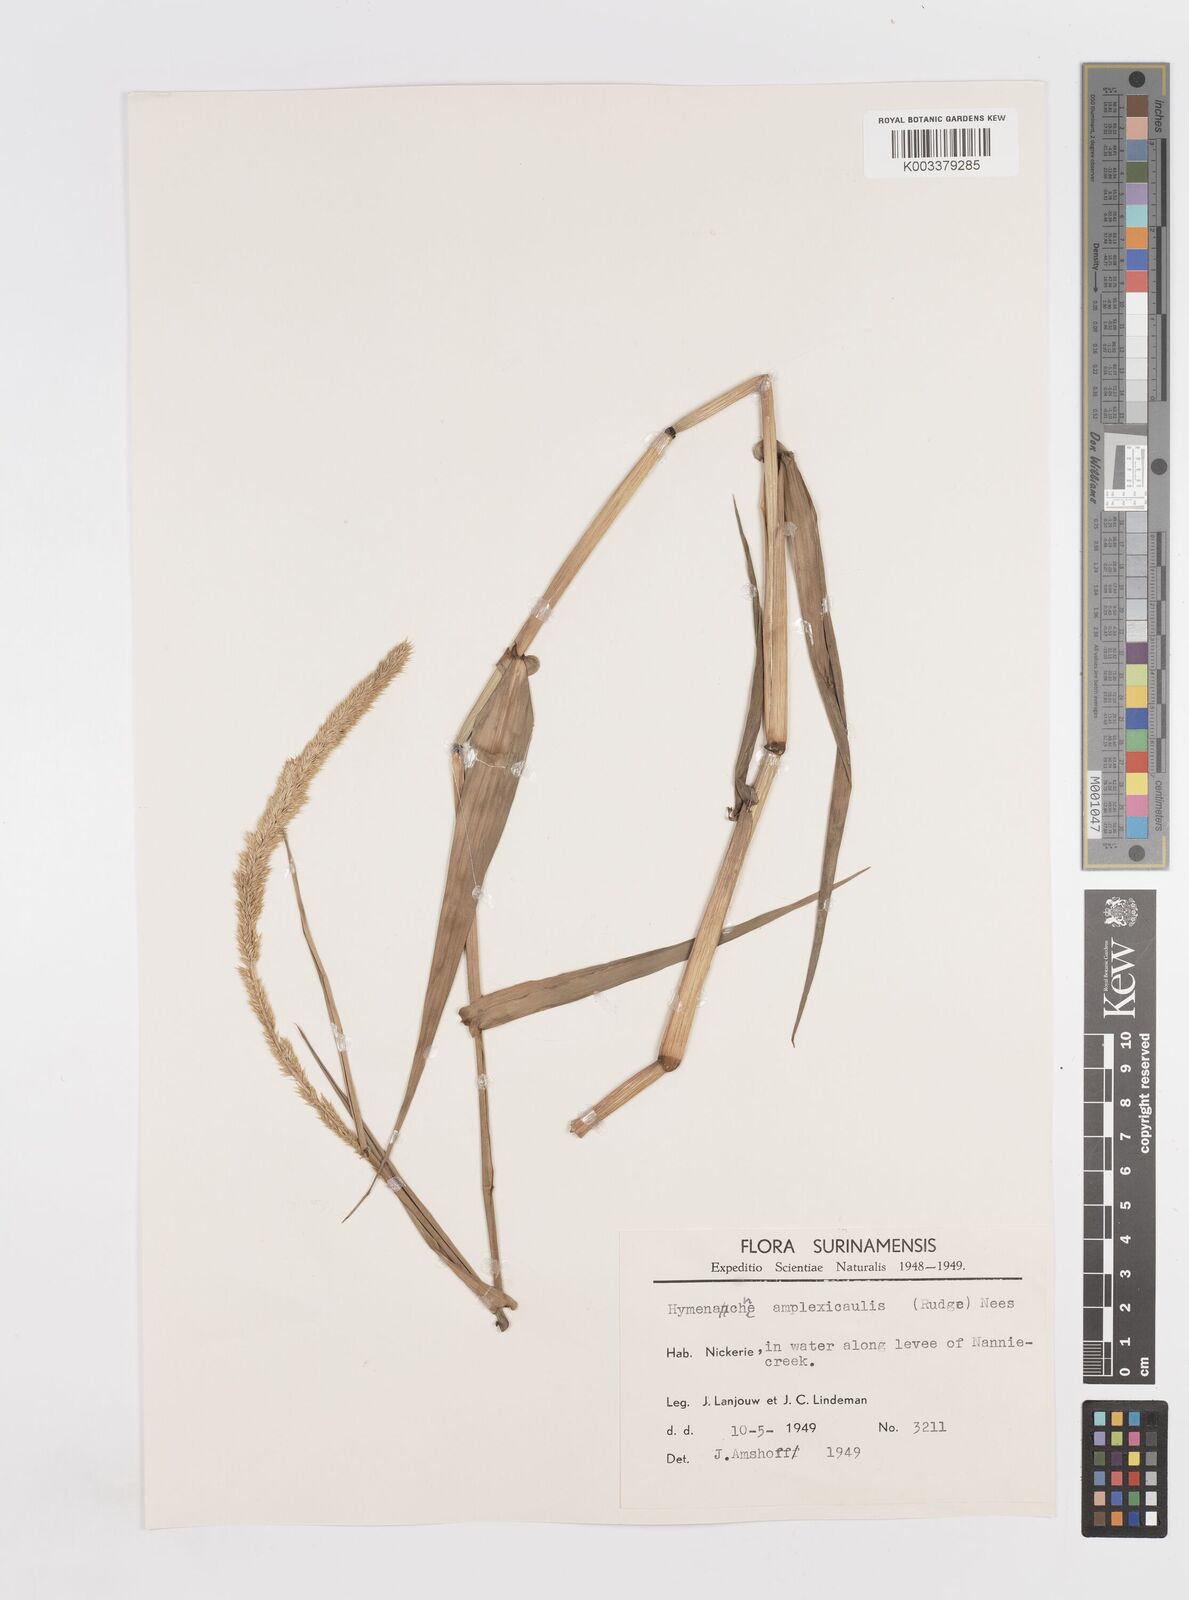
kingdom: Plantae
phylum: Tracheophyta
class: Liliopsida
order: Poales
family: Poaceae
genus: Hymenachne
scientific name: Hymenachne amplexicaulis
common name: Olive hymenachne
